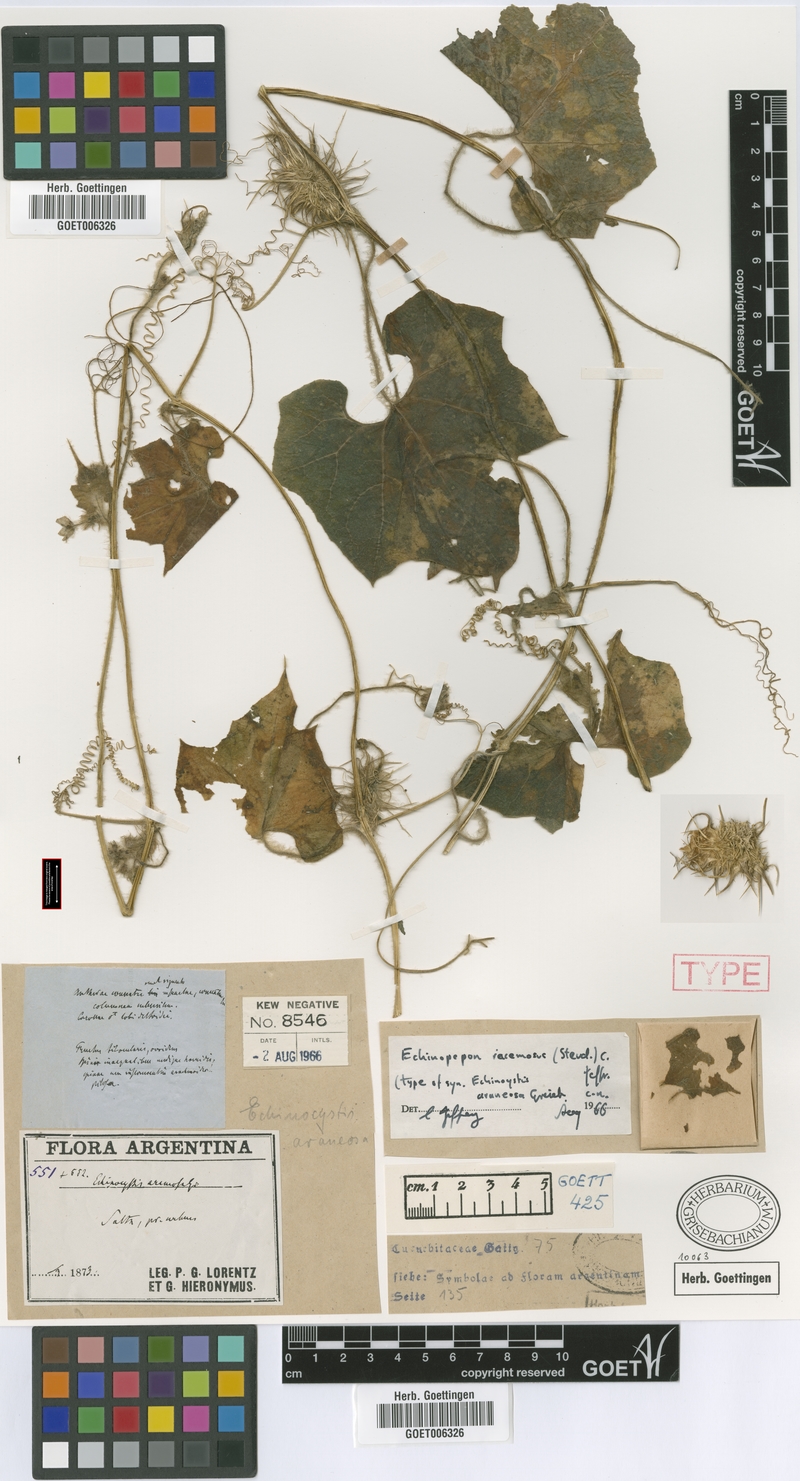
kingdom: Plantae
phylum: Tracheophyta
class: Magnoliopsida
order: Cucurbitales
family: Cucurbitaceae
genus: Echinopepon
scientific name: Echinopepon racemosus
